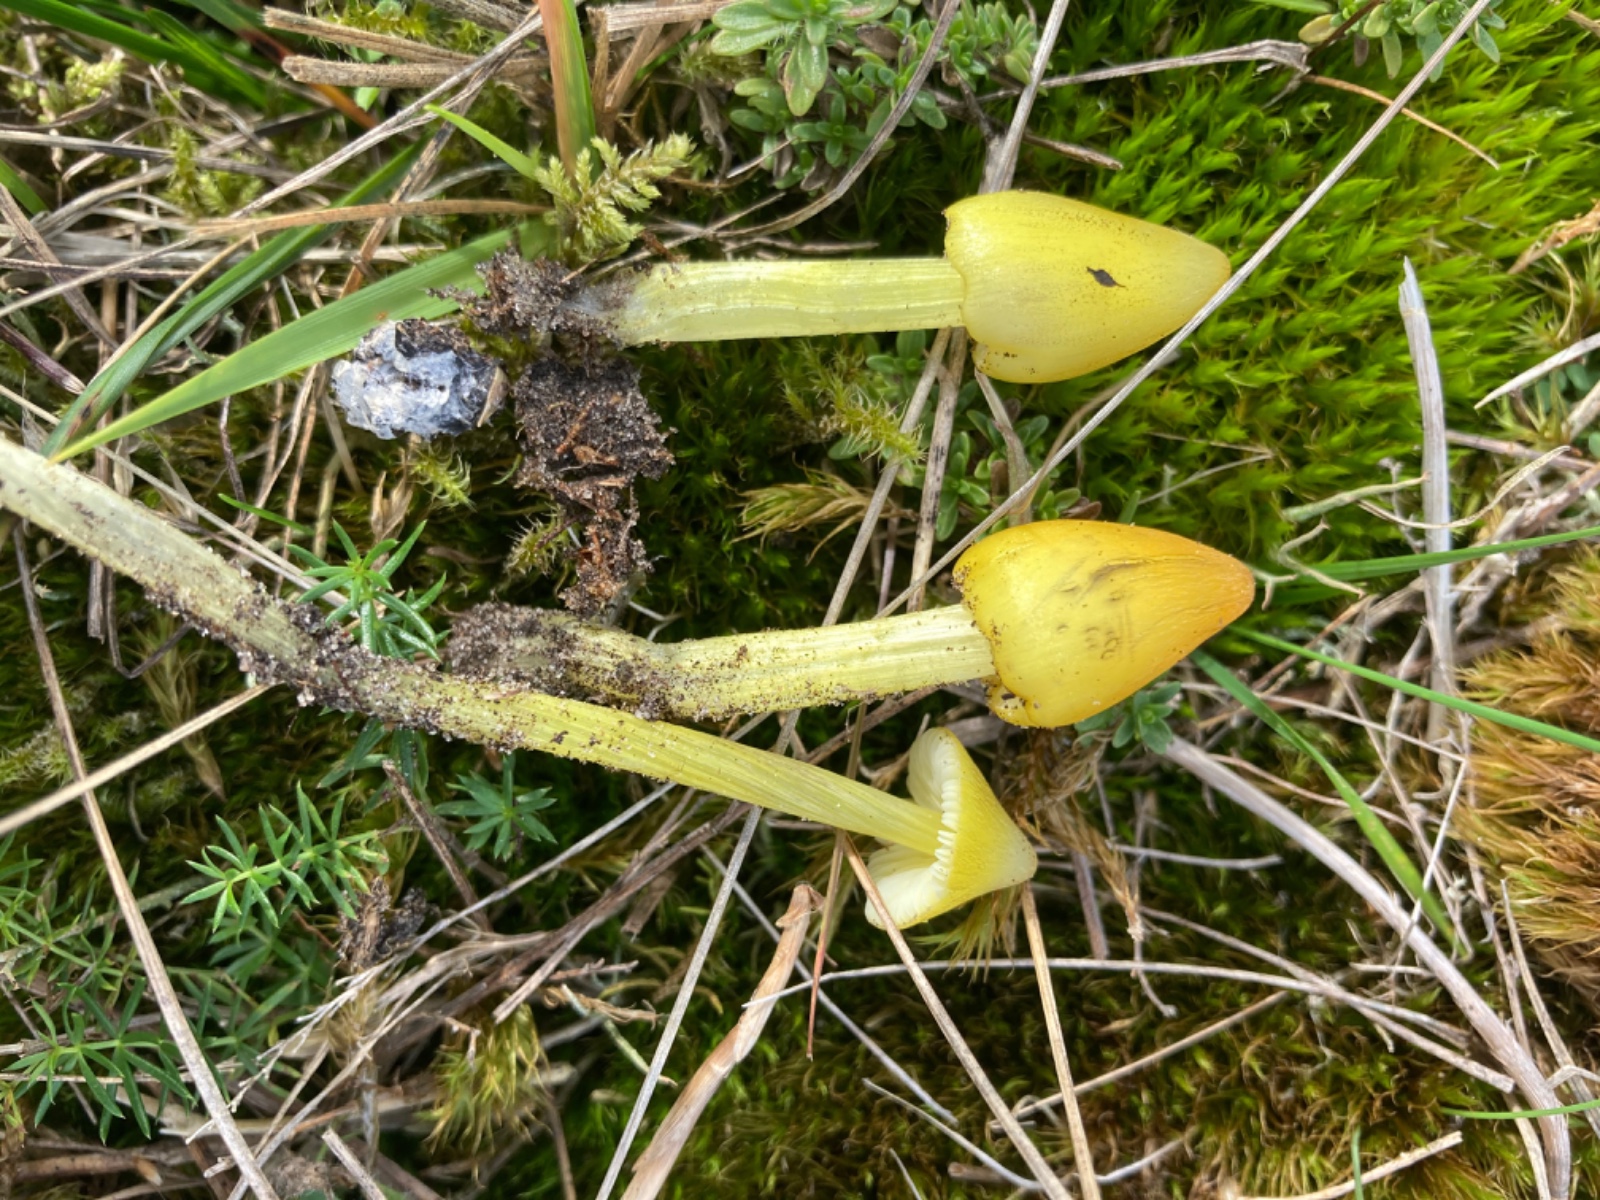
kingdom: Fungi
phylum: Basidiomycota
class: Agaricomycetes
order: Agaricales
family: Hygrophoraceae
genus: Hygrocybe
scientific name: Hygrocybe conica
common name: kegle-vokshat
